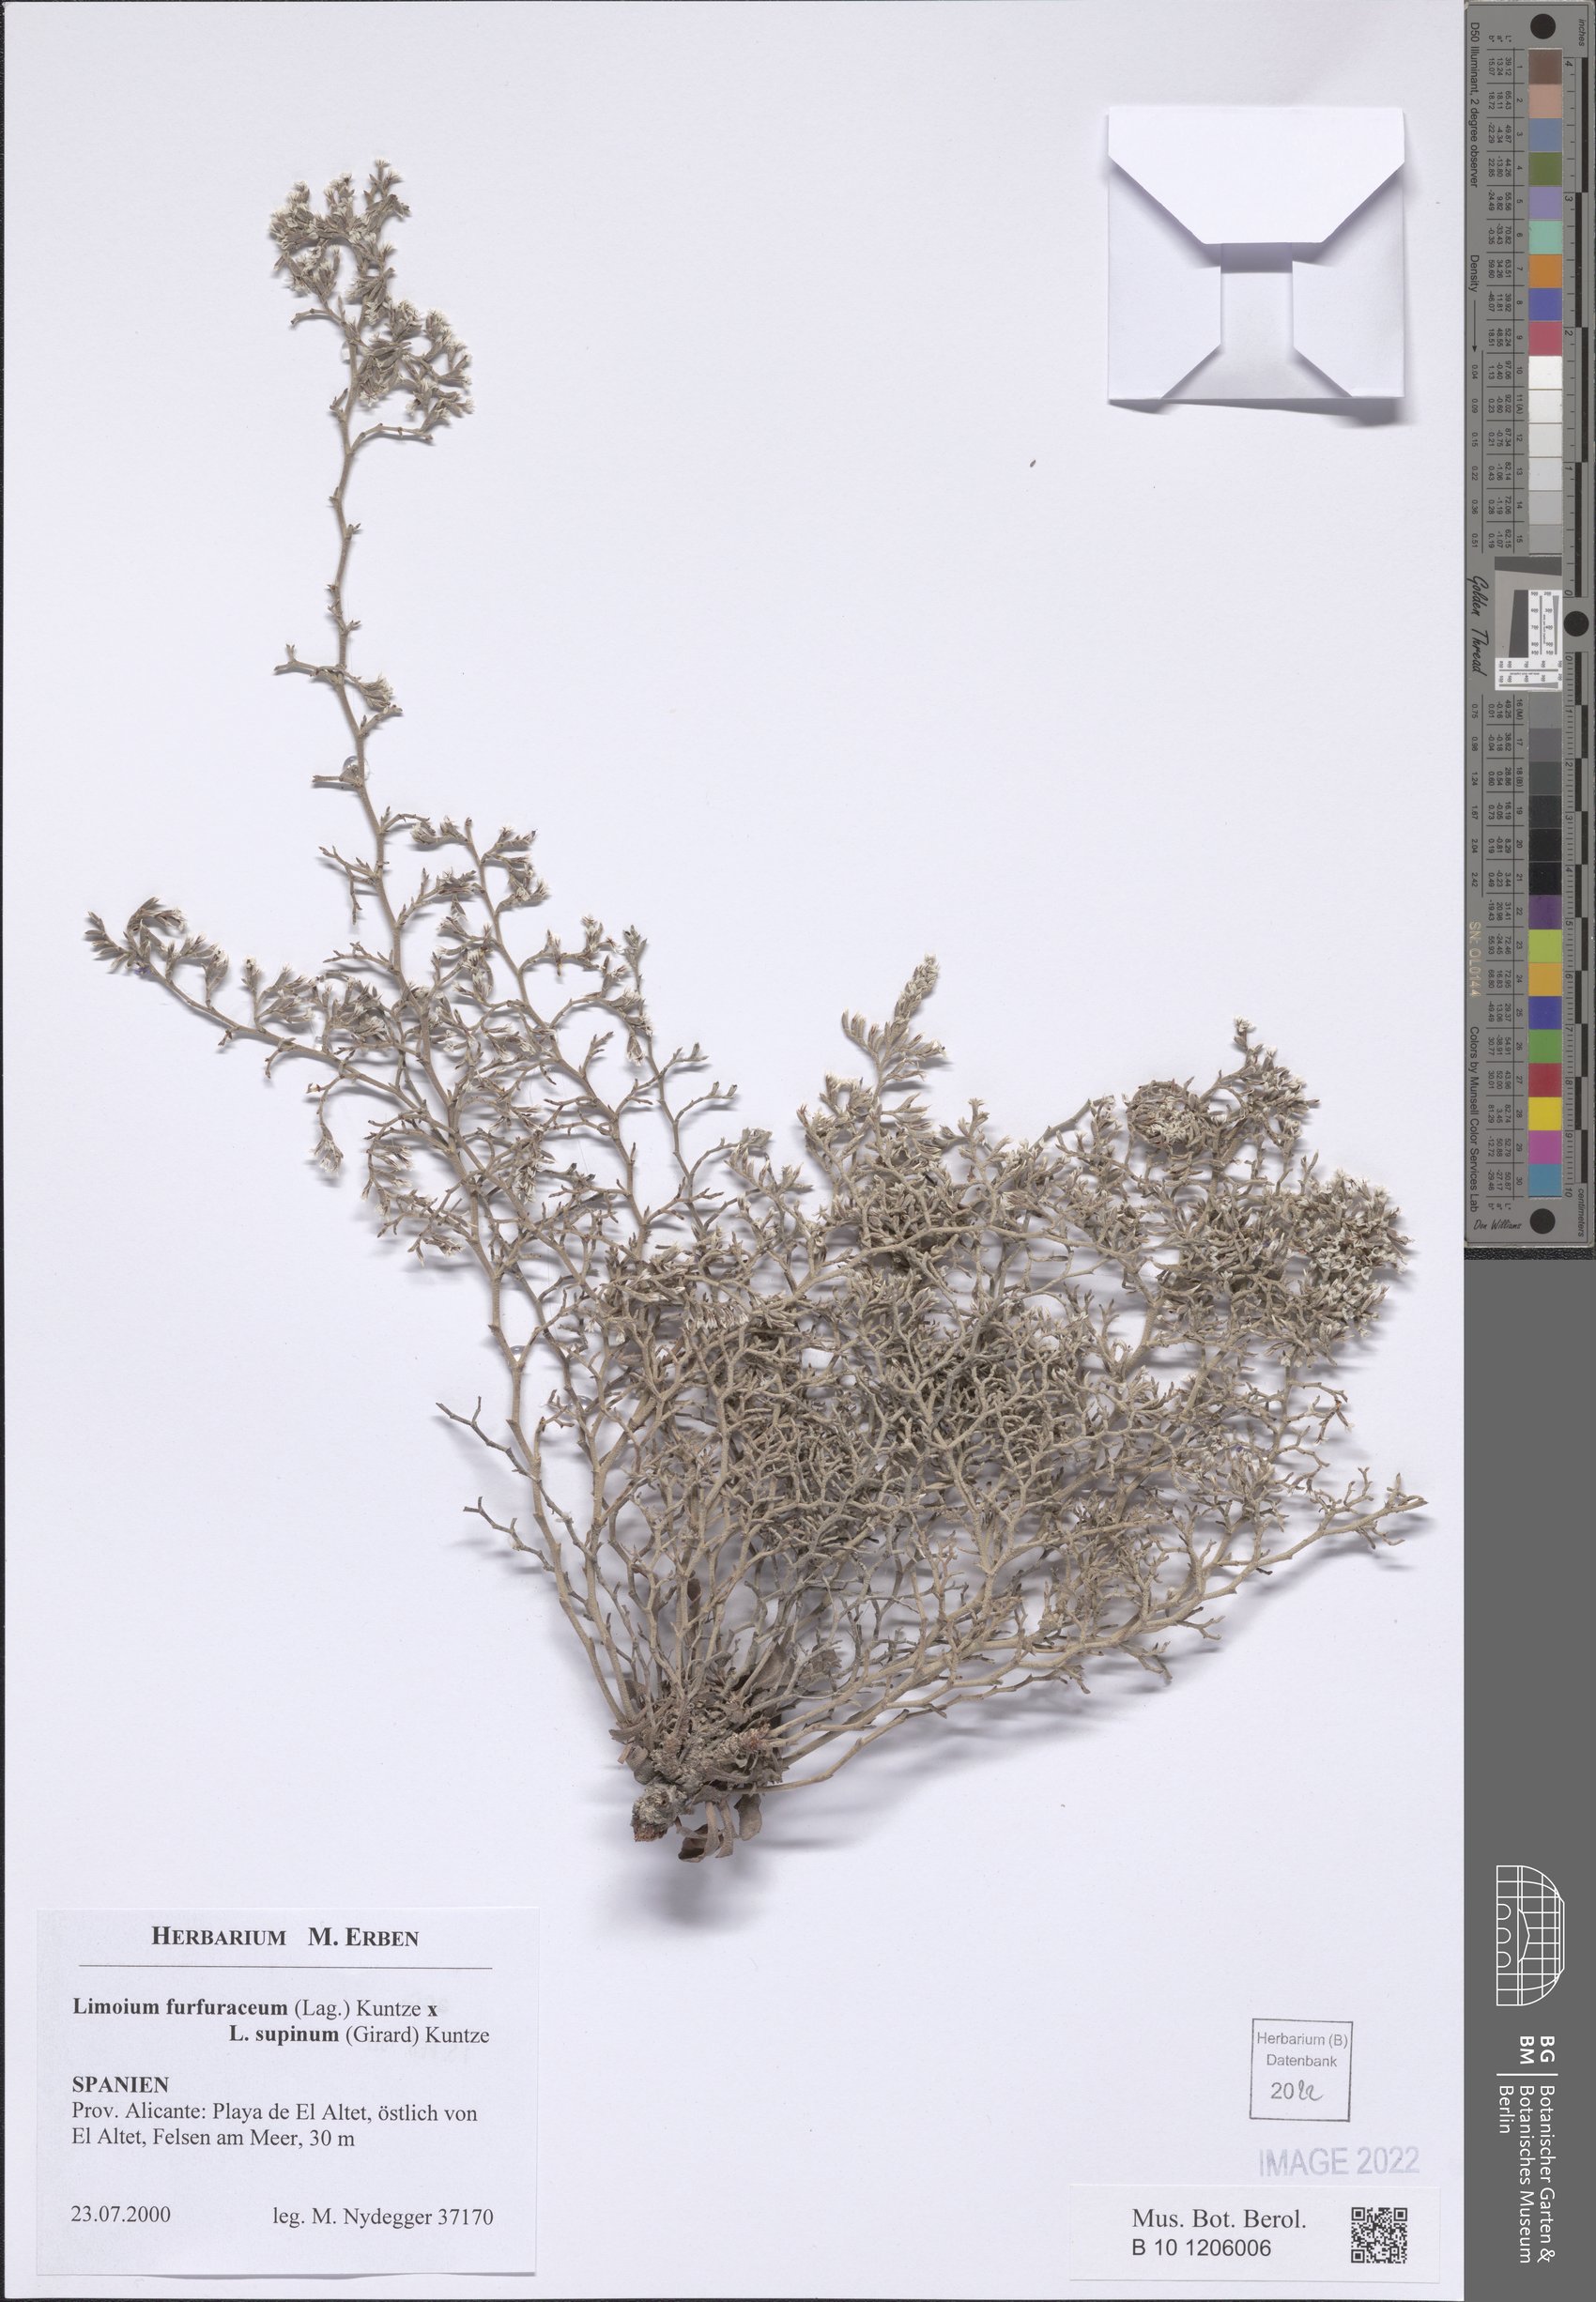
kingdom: Plantae
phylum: Tracheophyta
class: Magnoliopsida
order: Caryophyllales
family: Plumbaginaceae
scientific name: Plumbaginaceae
